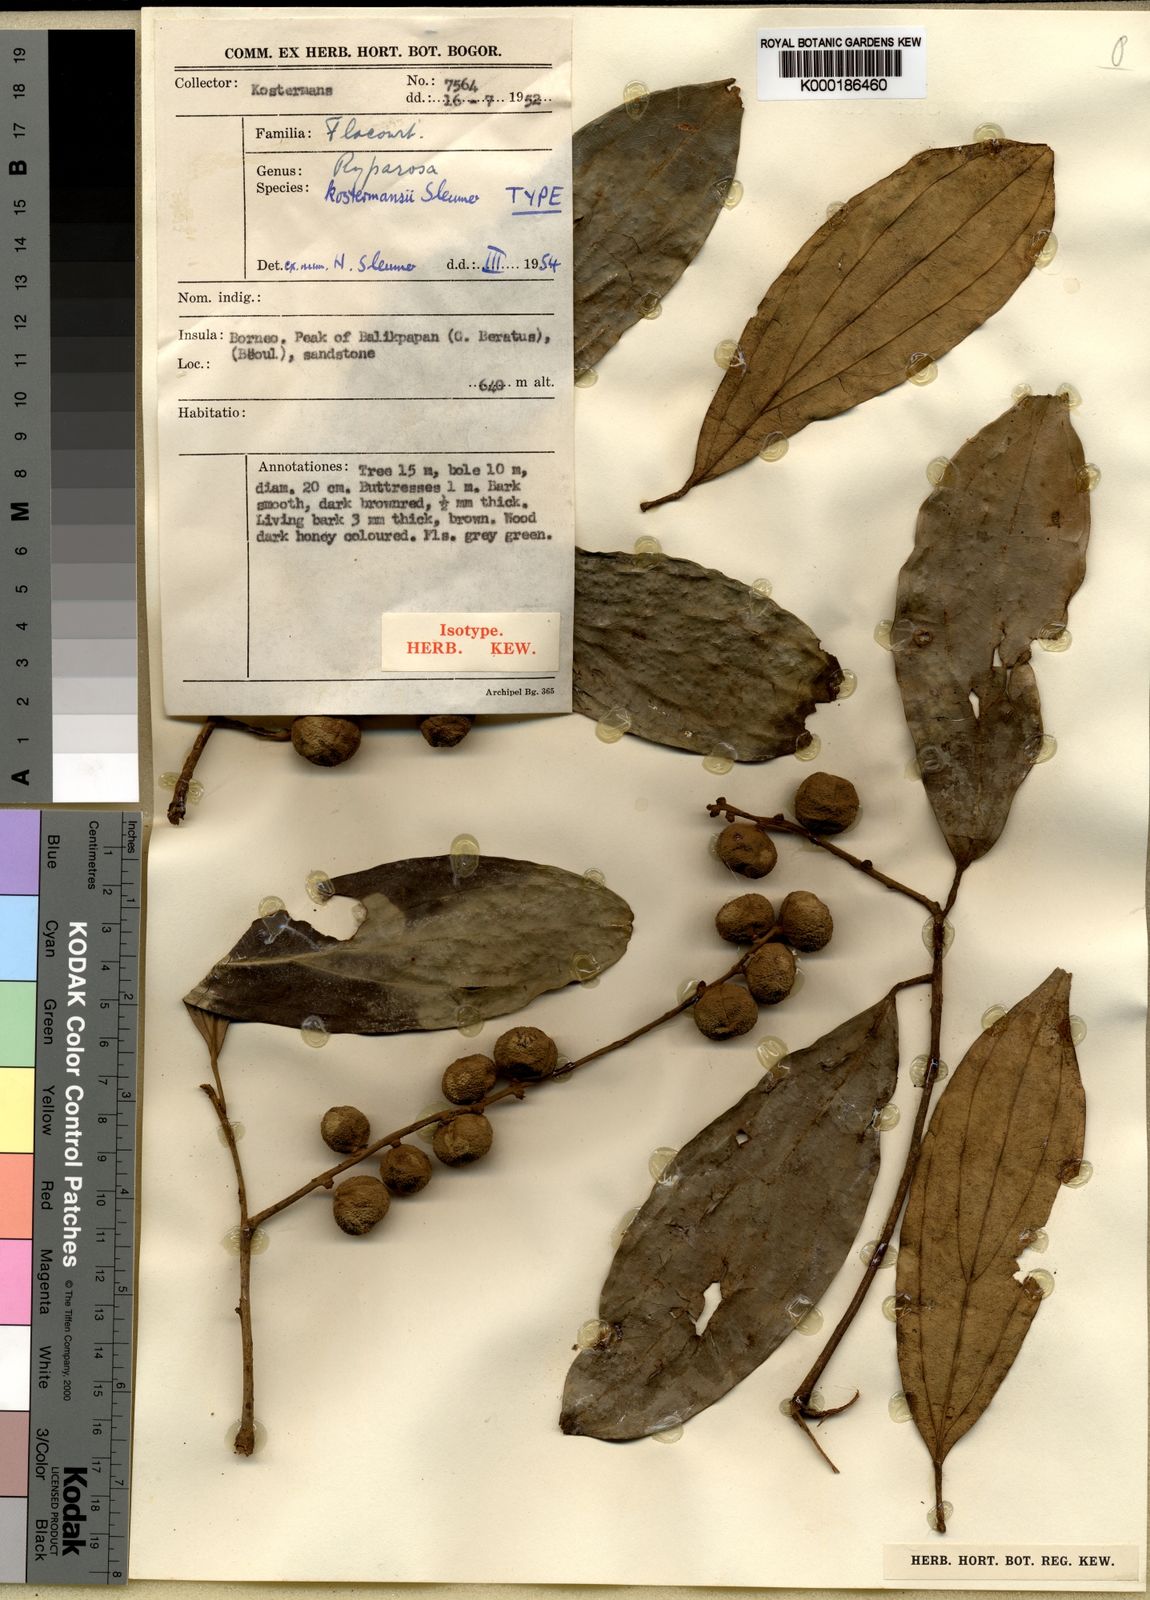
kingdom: Plantae
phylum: Tracheophyta
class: Magnoliopsida
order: Malpighiales
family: Achariaceae
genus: Ryparosa
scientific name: Ryparosa kostermansii
